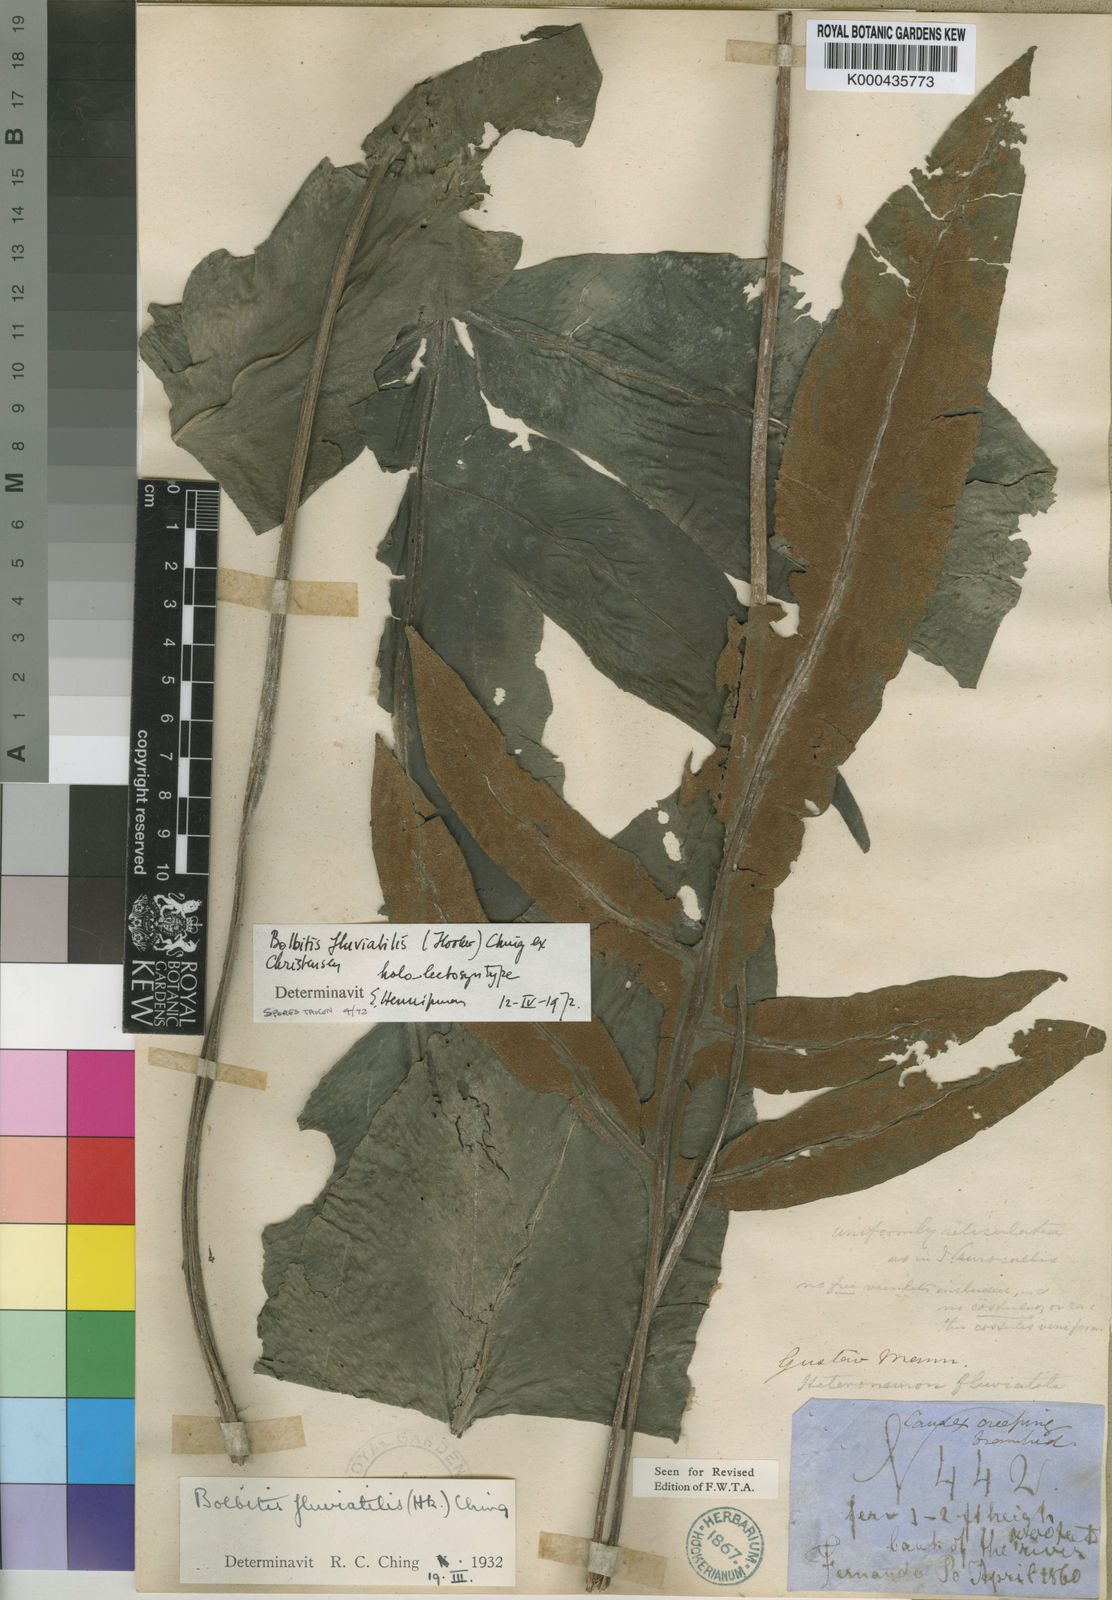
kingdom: Plantae
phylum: Tracheophyta
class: Polypodiopsida
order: Polypodiales
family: Dryopteridaceae
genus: Bolbitis
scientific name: Bolbitis fluviatilis
